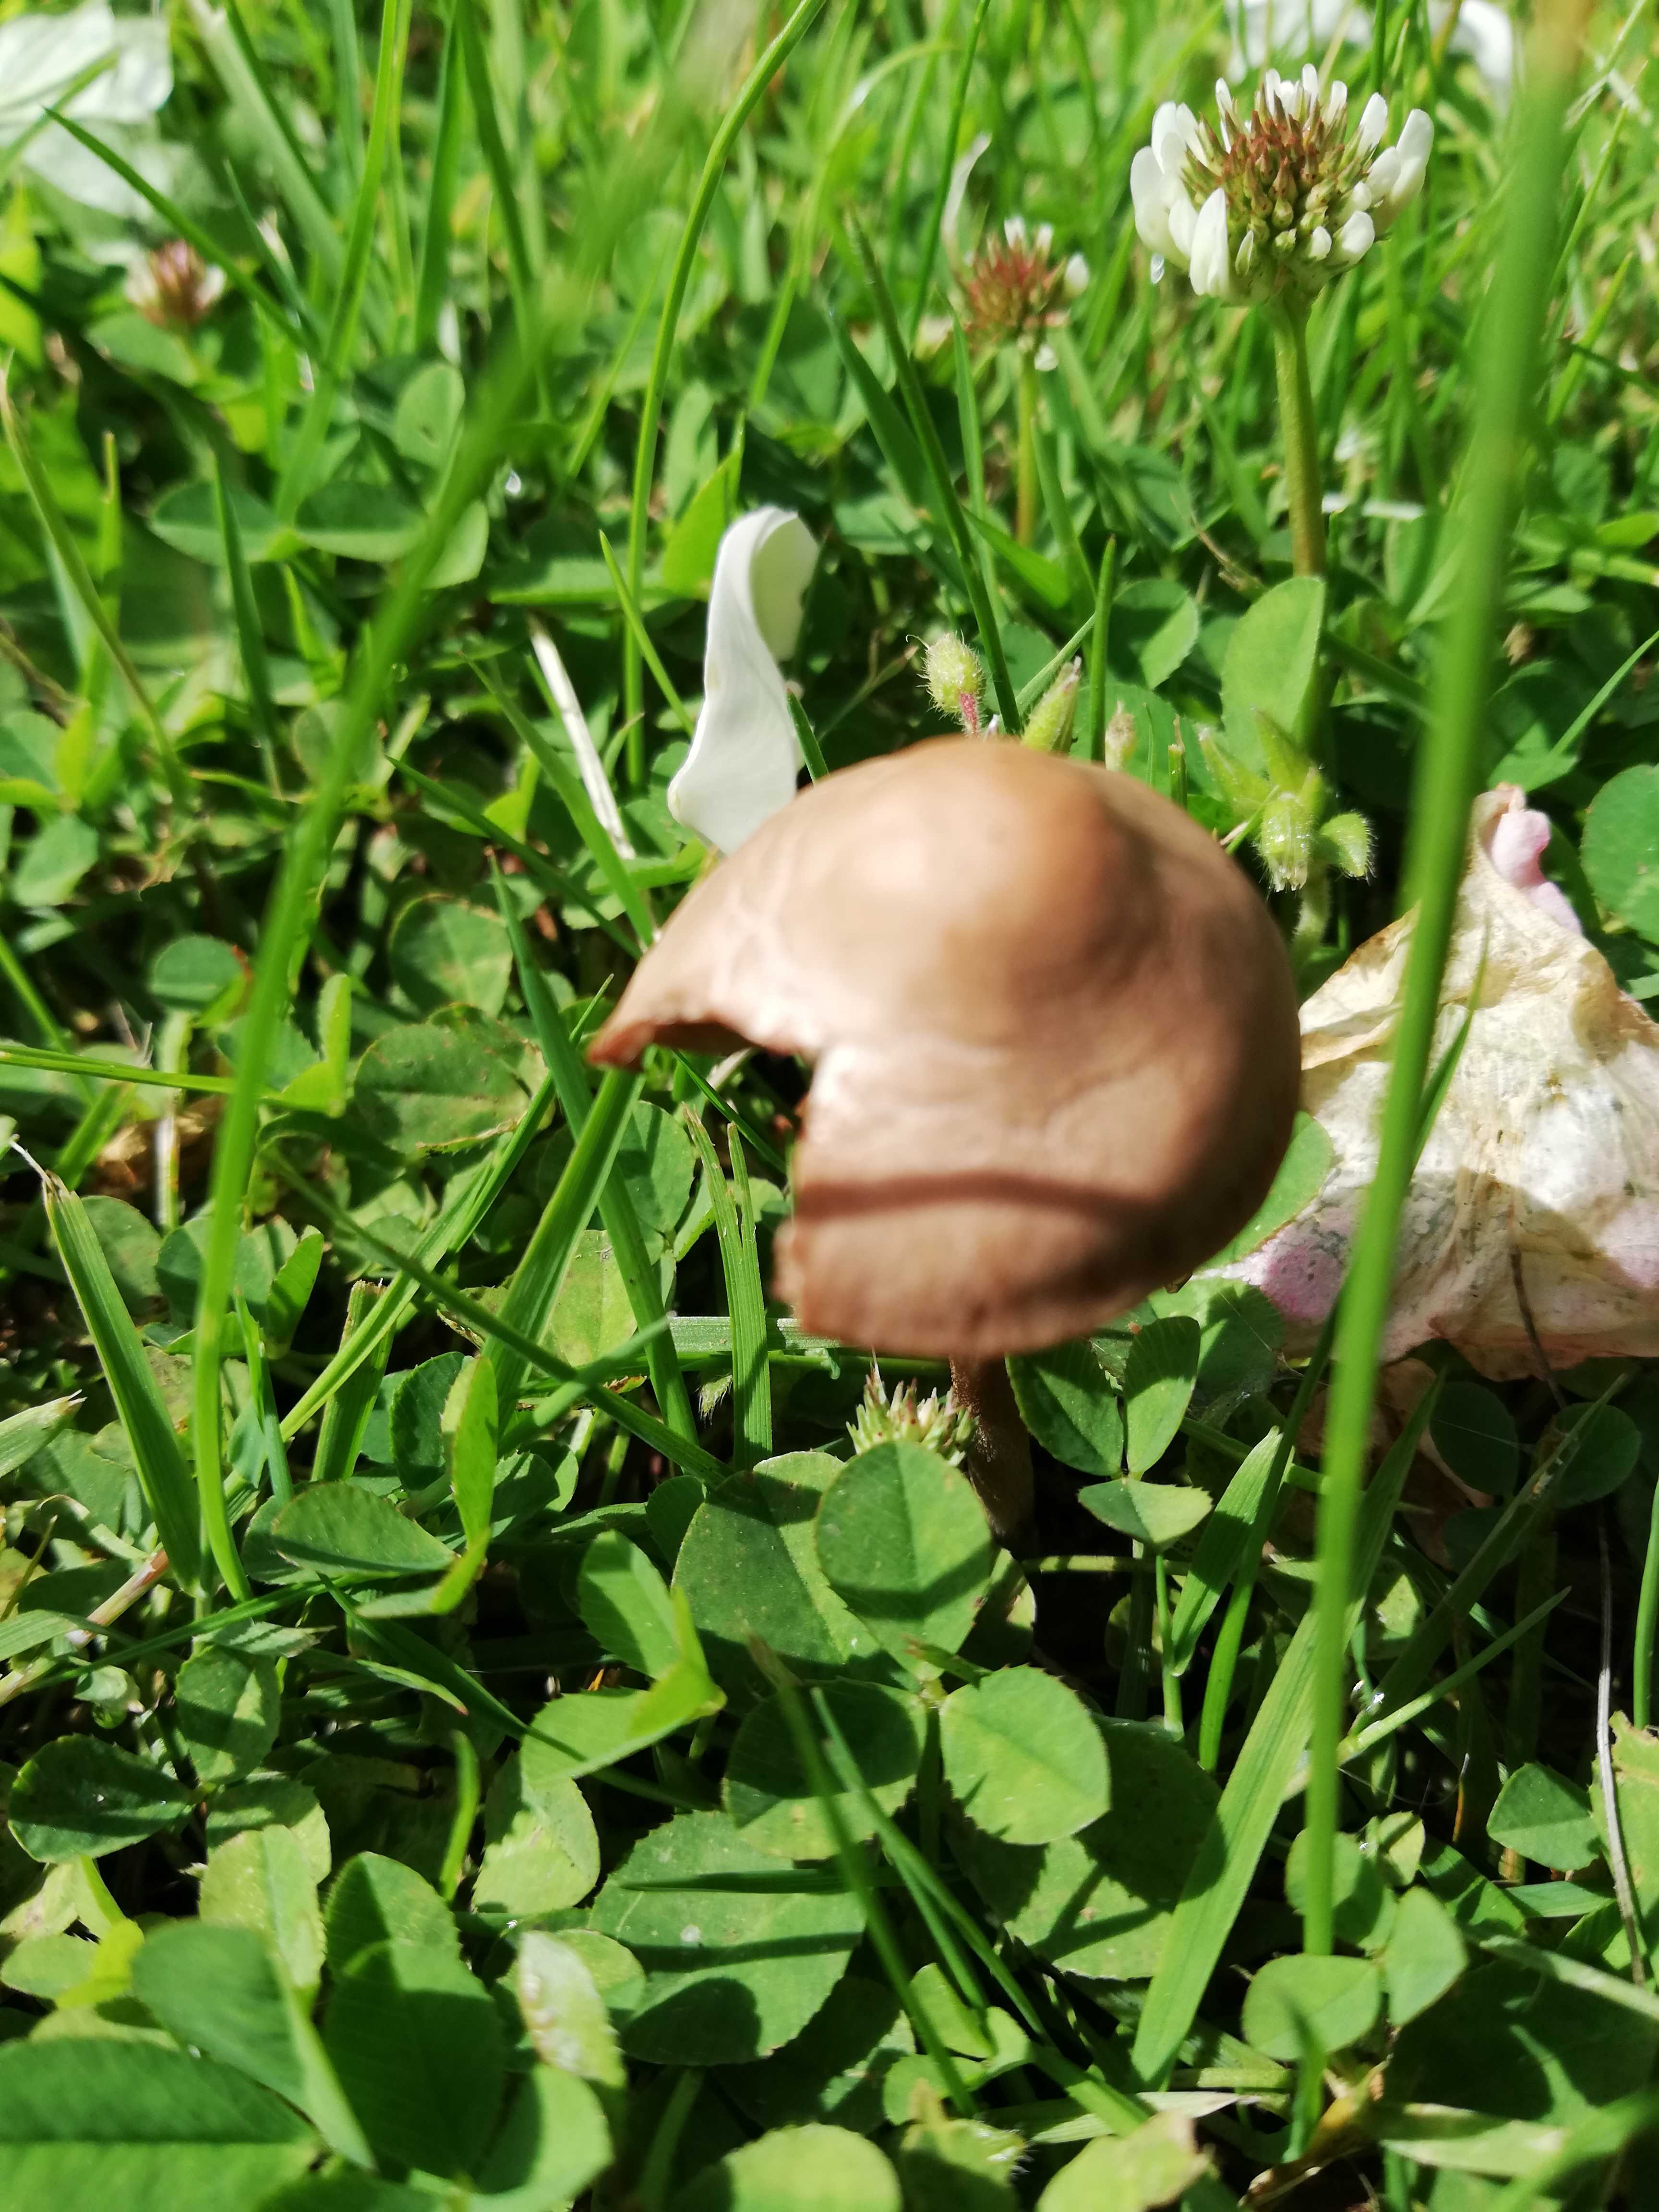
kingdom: Fungi
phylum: Basidiomycota
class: Agaricomycetes
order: Agaricales
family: Bolbitiaceae
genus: Panaeolina
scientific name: Panaeolina foenisecii
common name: høslætsvamp
